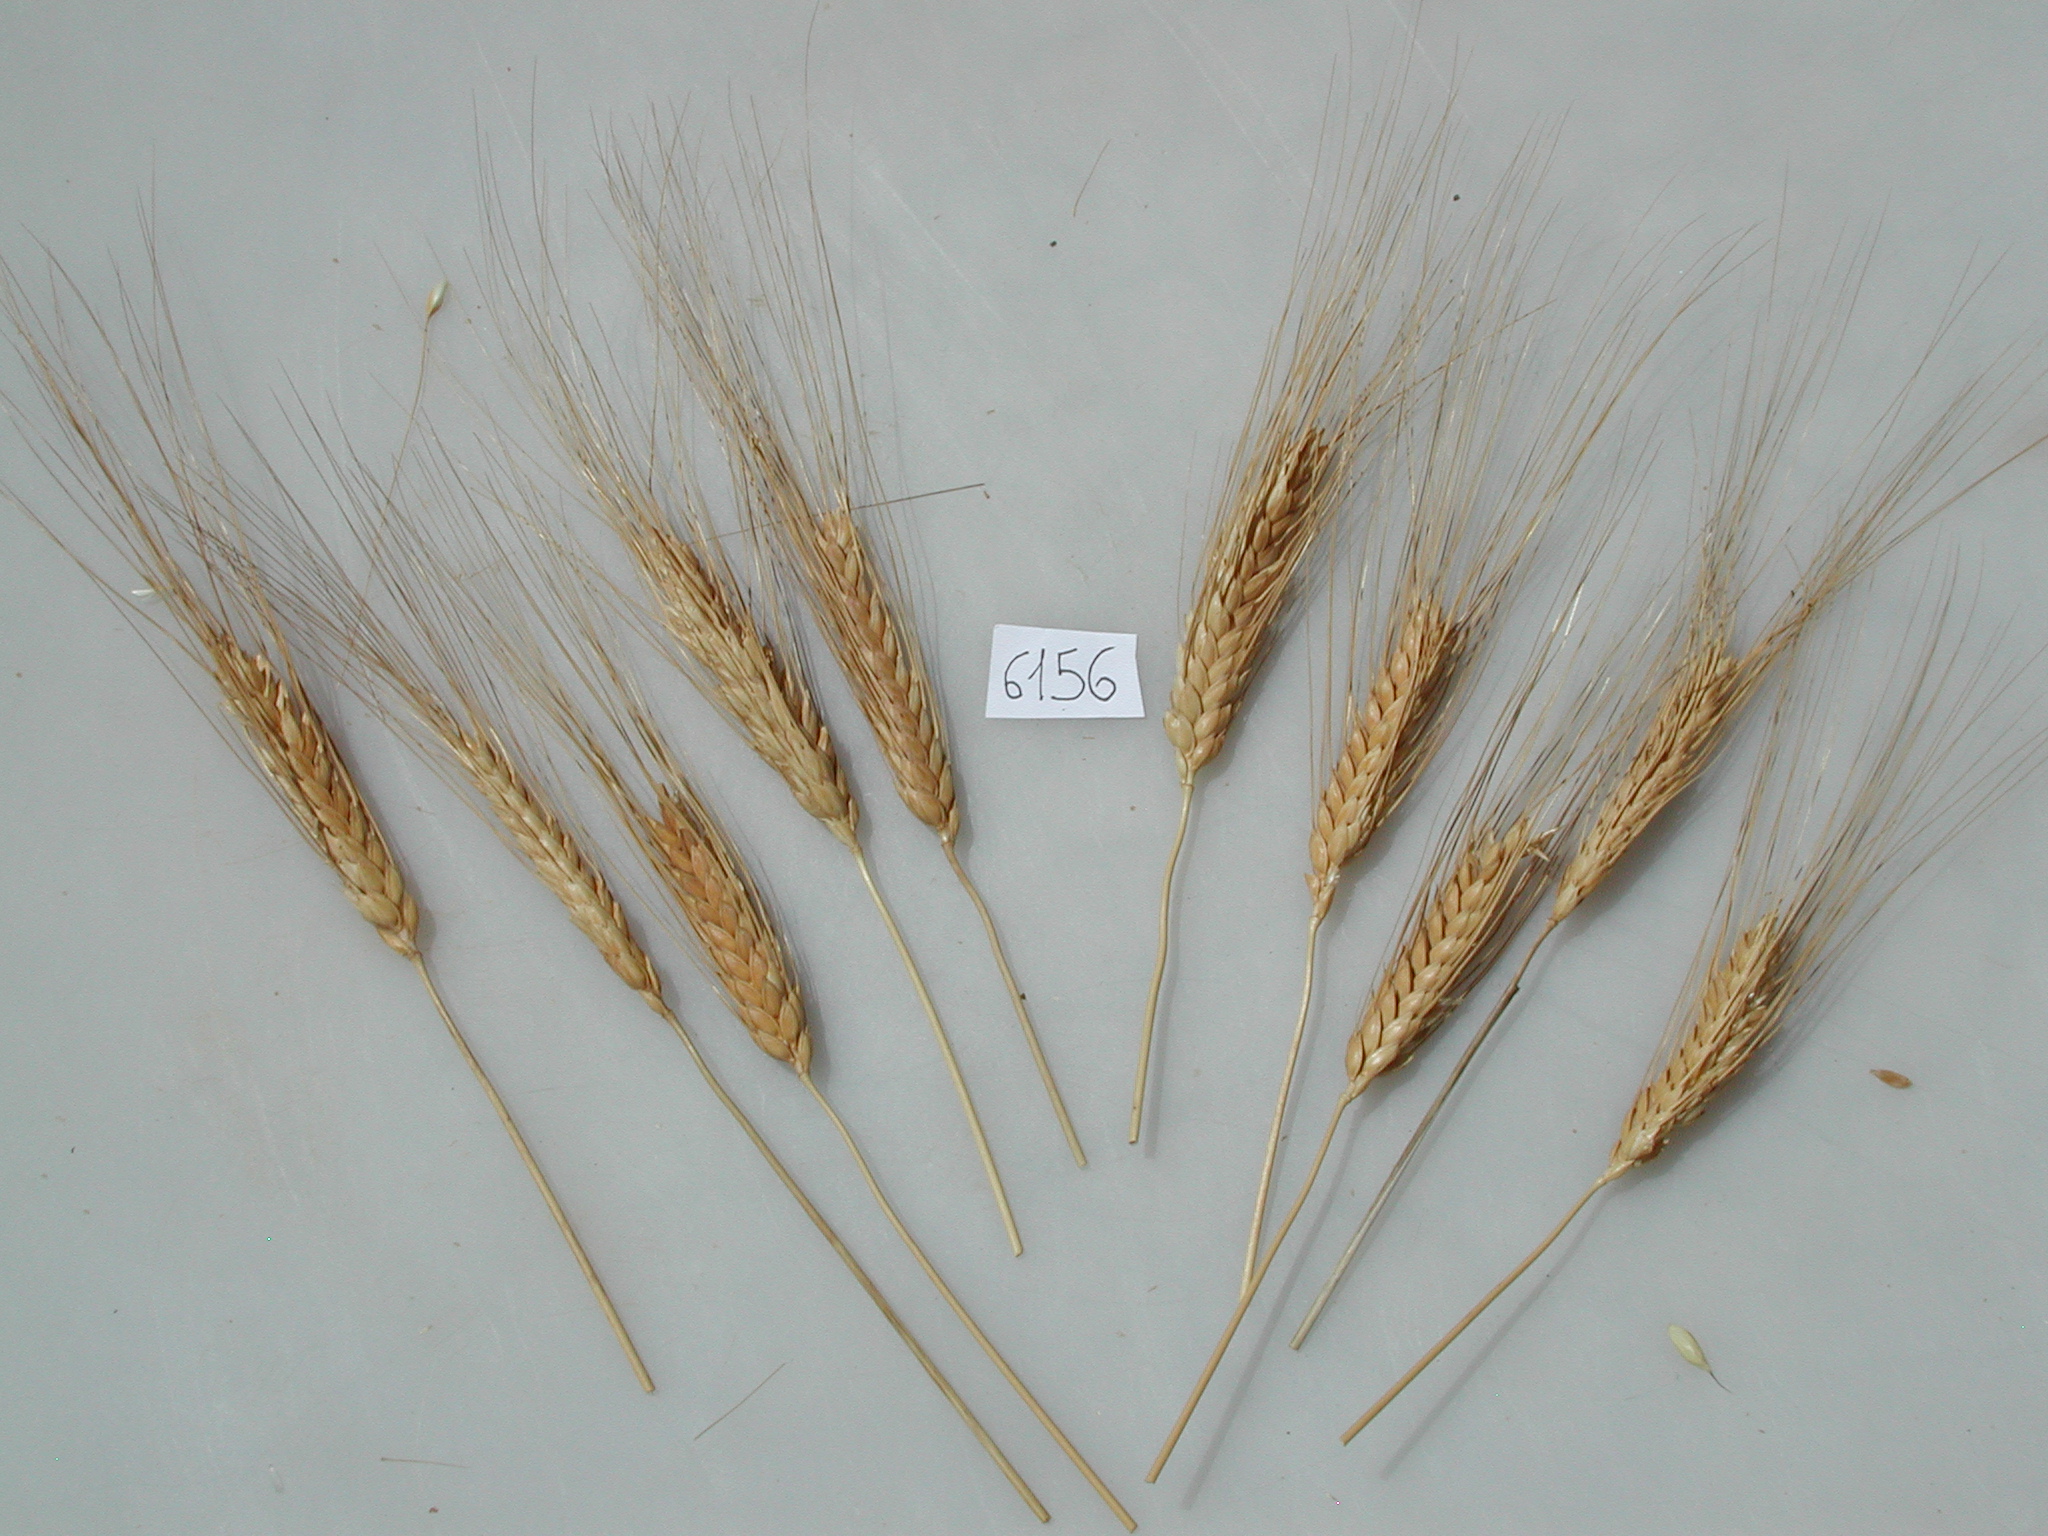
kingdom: Plantae
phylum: Tracheophyta
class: Liliopsida
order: Poales
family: Poaceae
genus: Triticum
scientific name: Triticum turgidum
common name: Wheat
